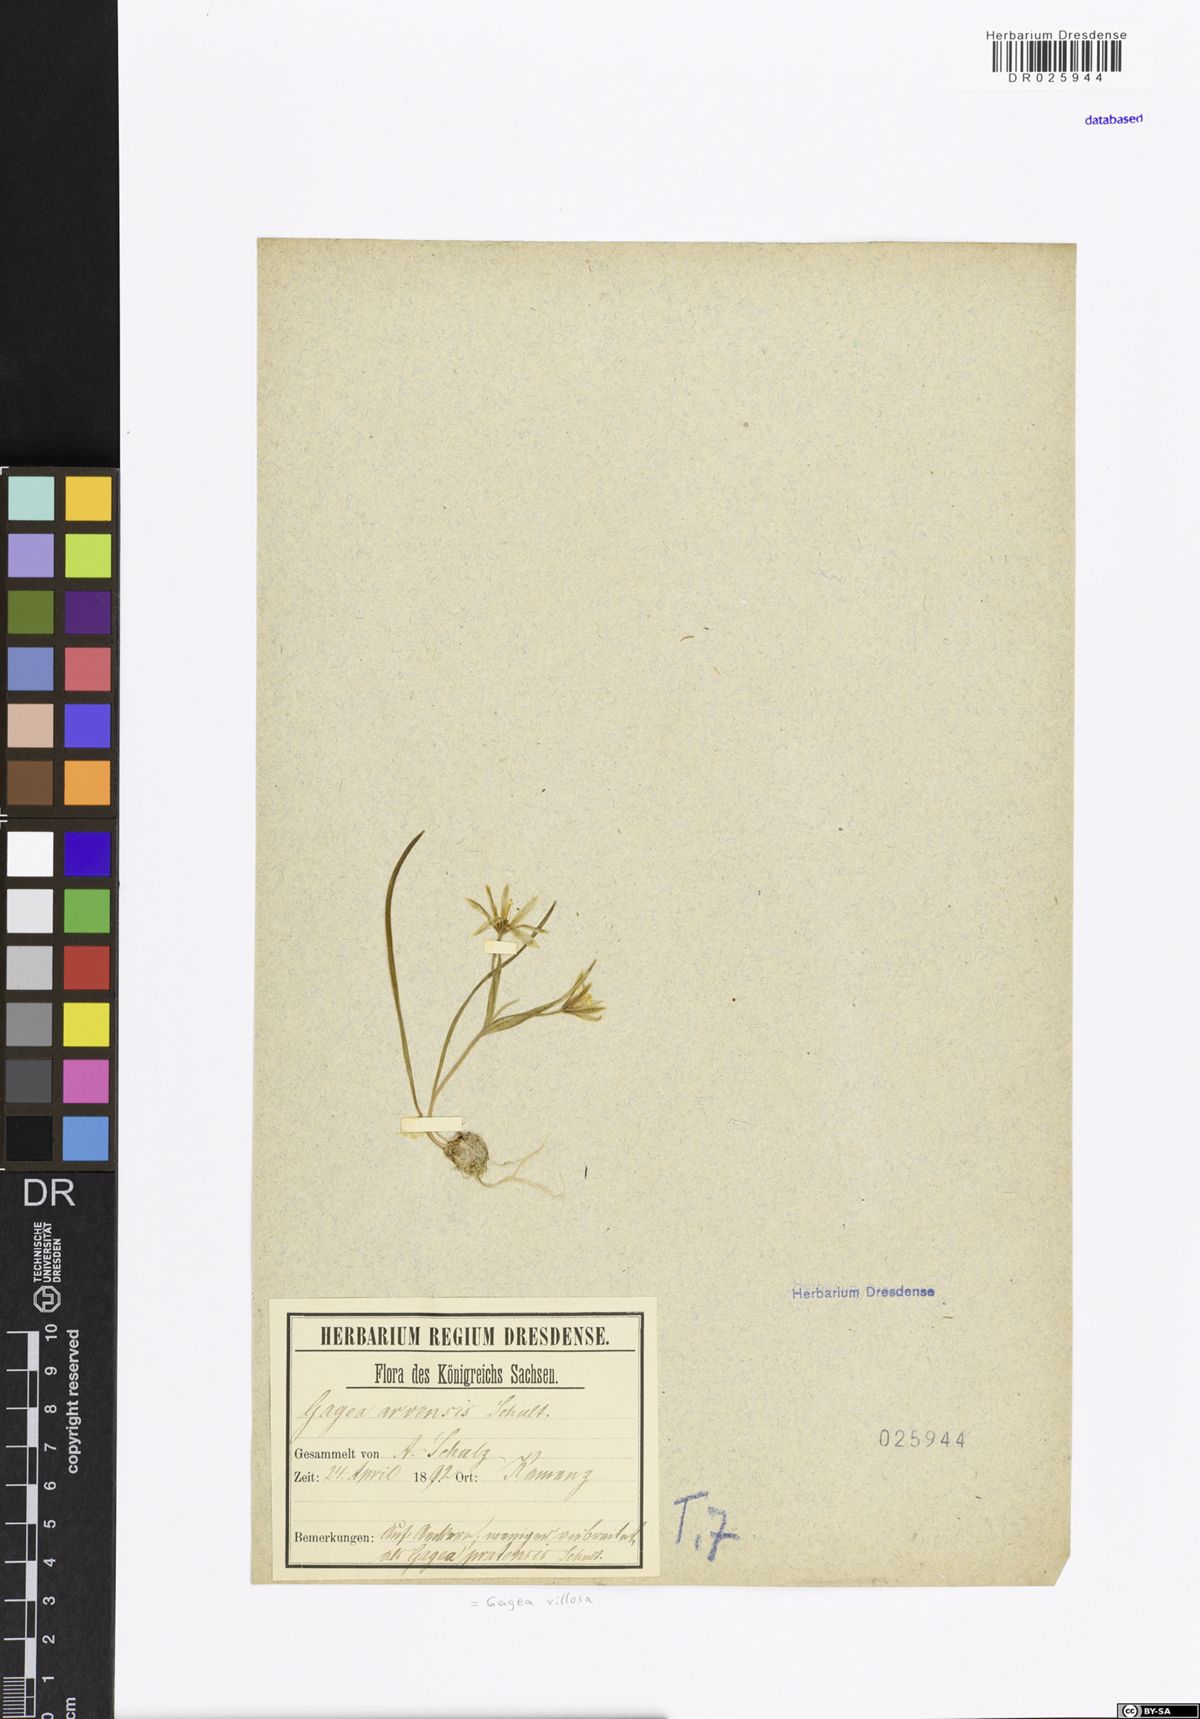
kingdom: Plantae
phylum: Tracheophyta
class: Liliopsida
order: Liliales
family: Liliaceae
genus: Gagea
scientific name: Gagea villosa
